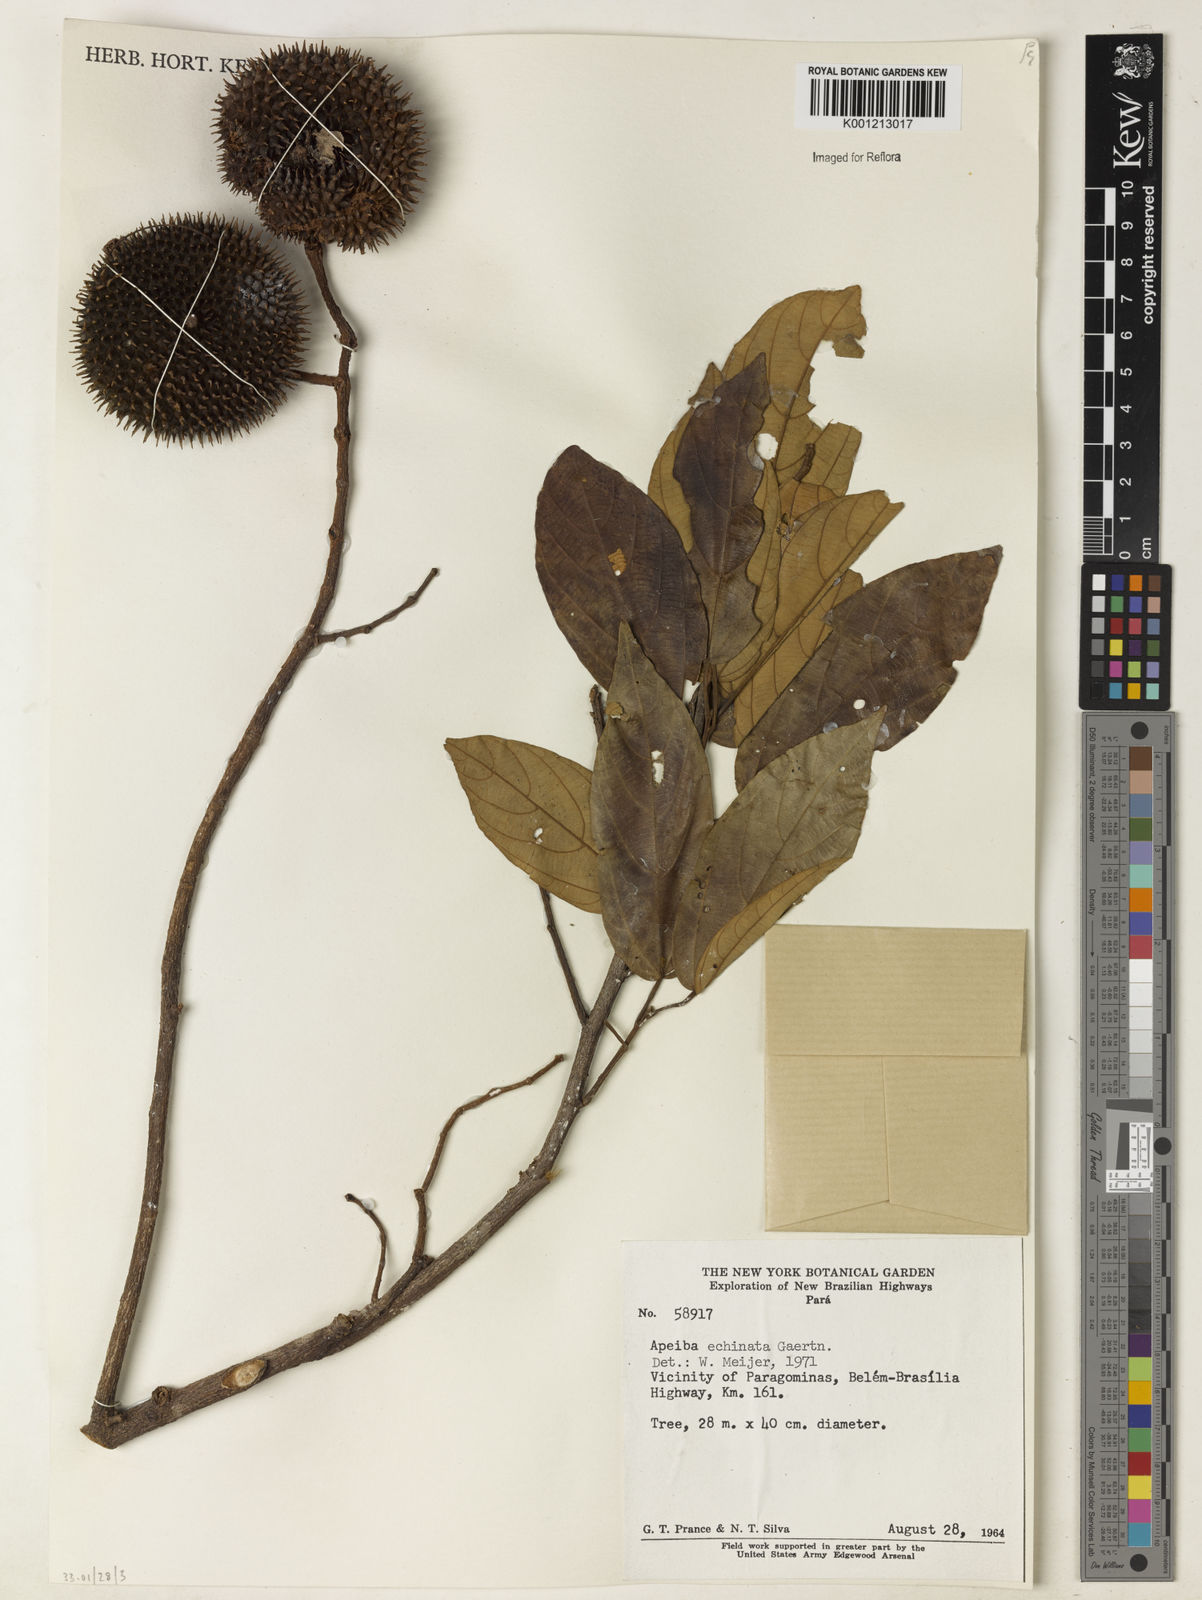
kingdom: Plantae
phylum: Tracheophyta
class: Magnoliopsida
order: Malvales
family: Malvaceae
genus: Apeiba
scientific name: Apeiba petoumo
